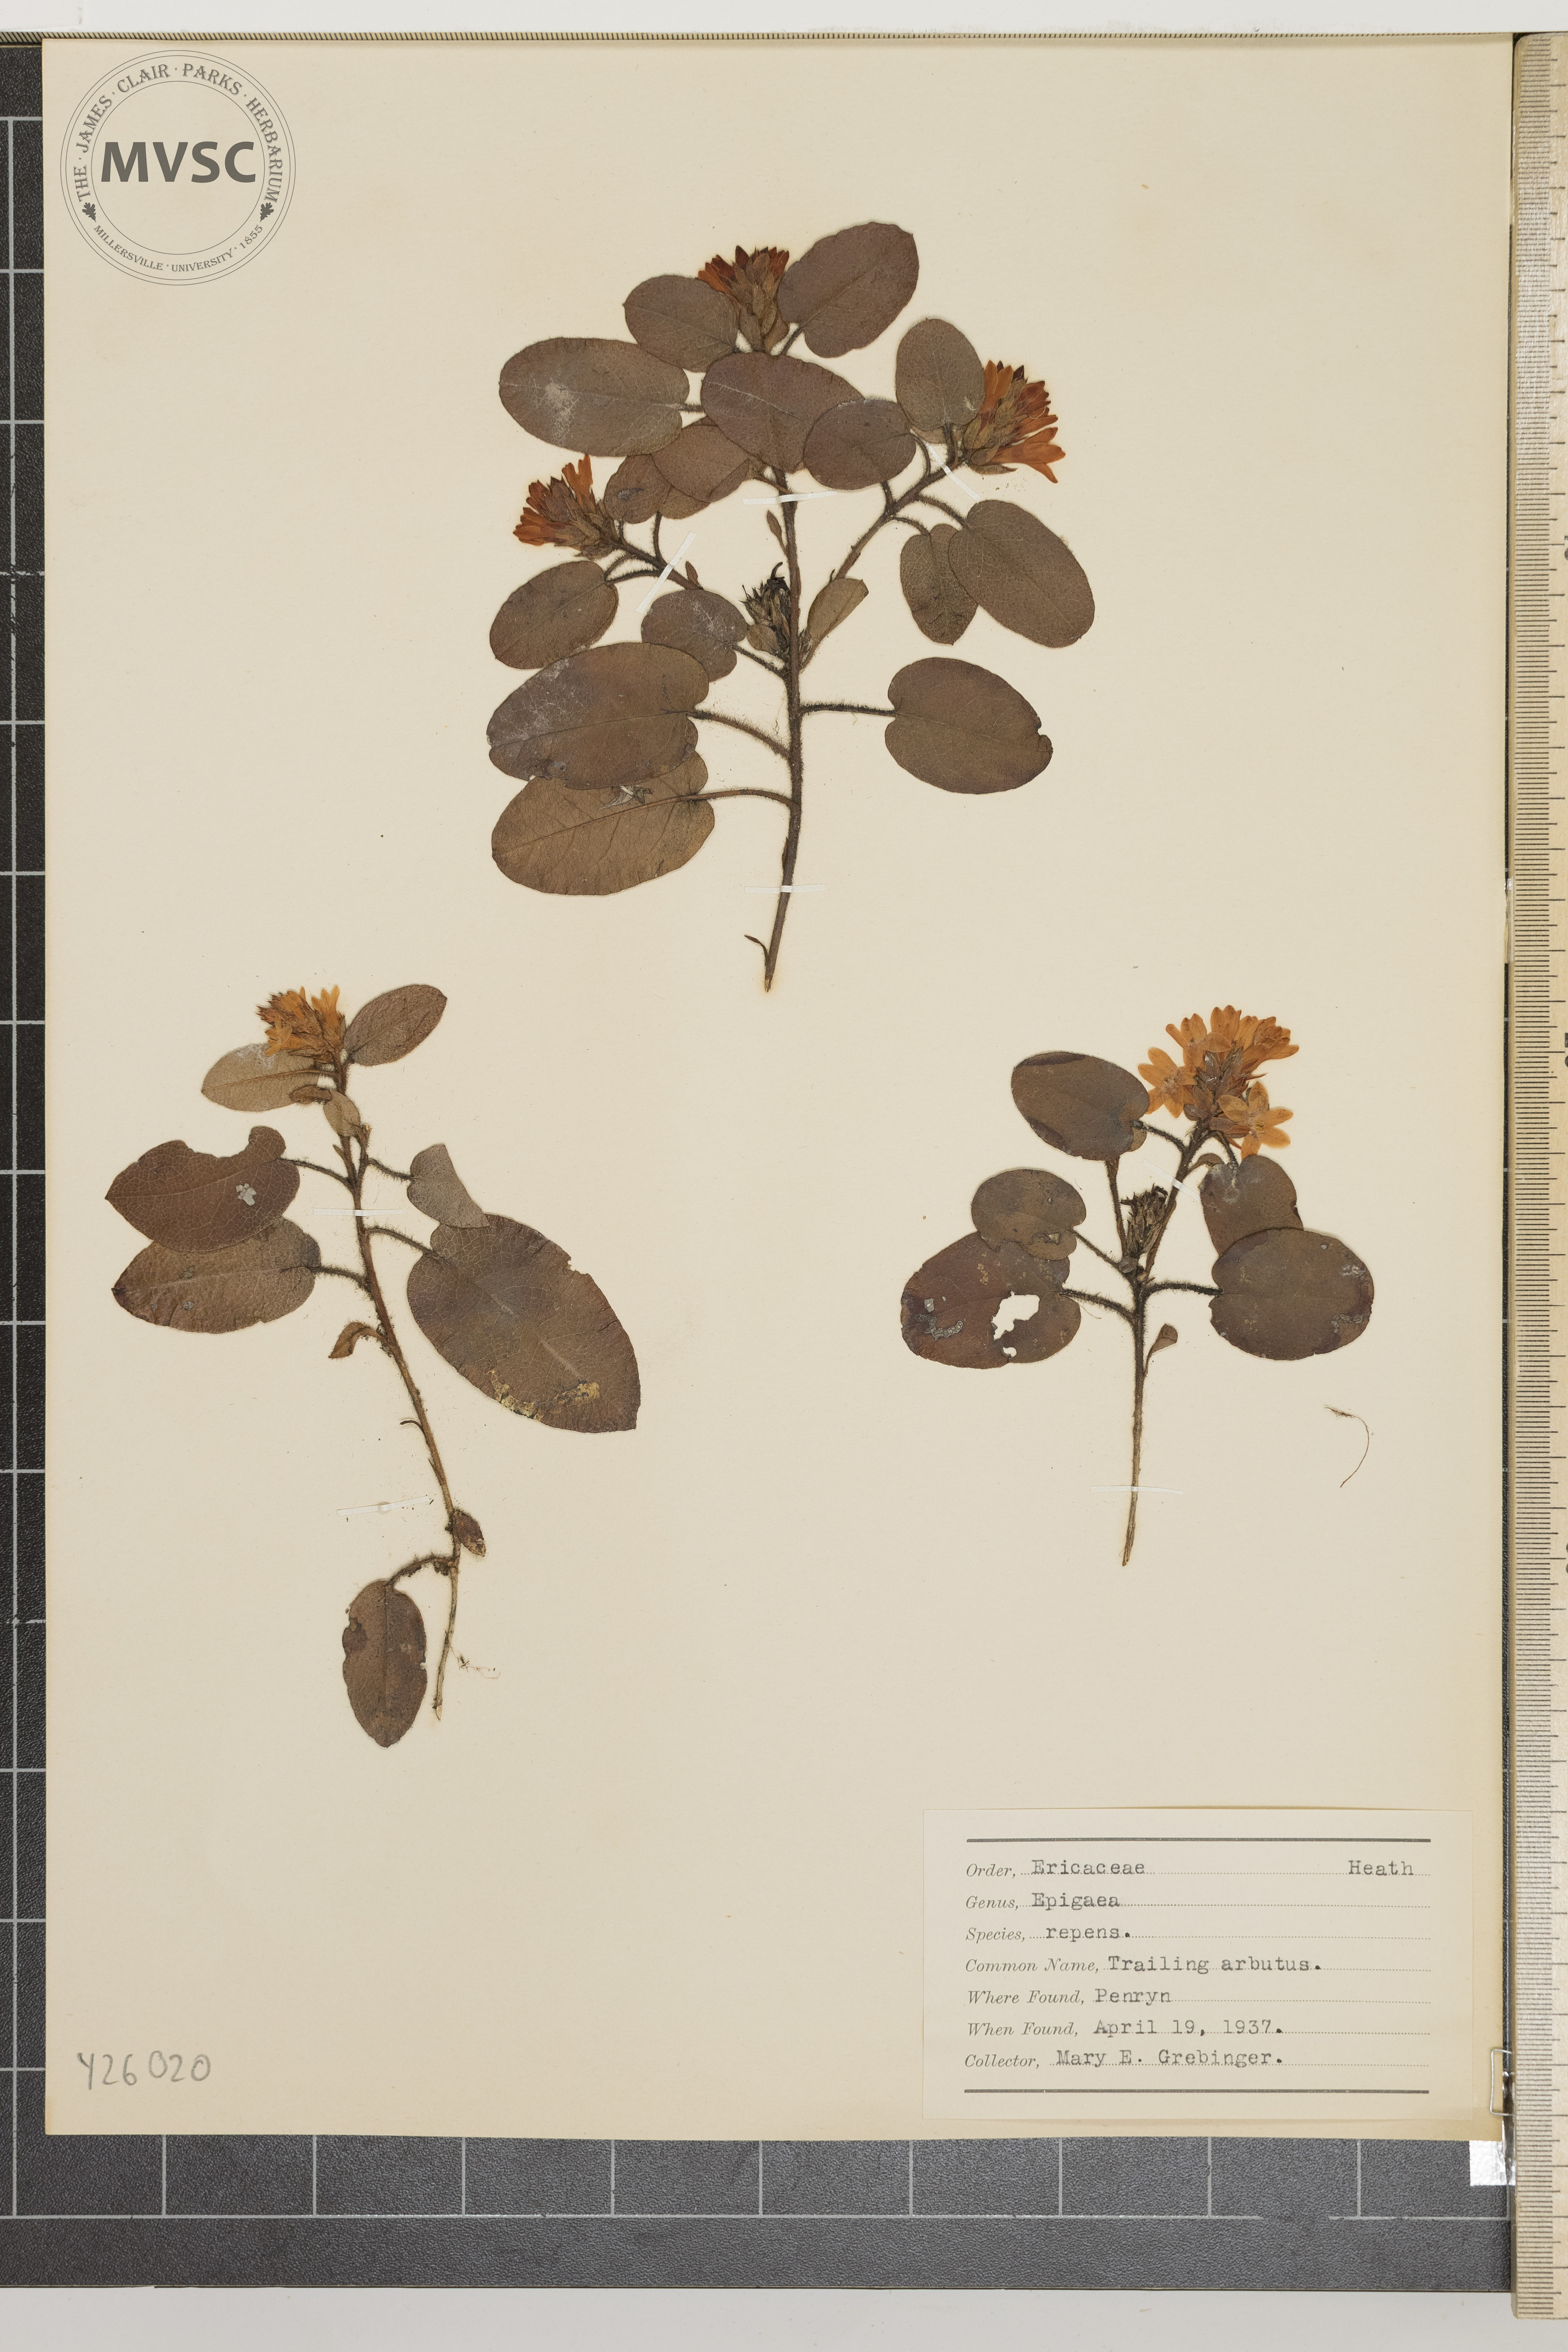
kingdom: Plantae
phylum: Tracheophyta
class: Magnoliopsida
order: Ericales
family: Ericaceae
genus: Epigaea
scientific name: Epigaea repens
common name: Trailing arbutus
